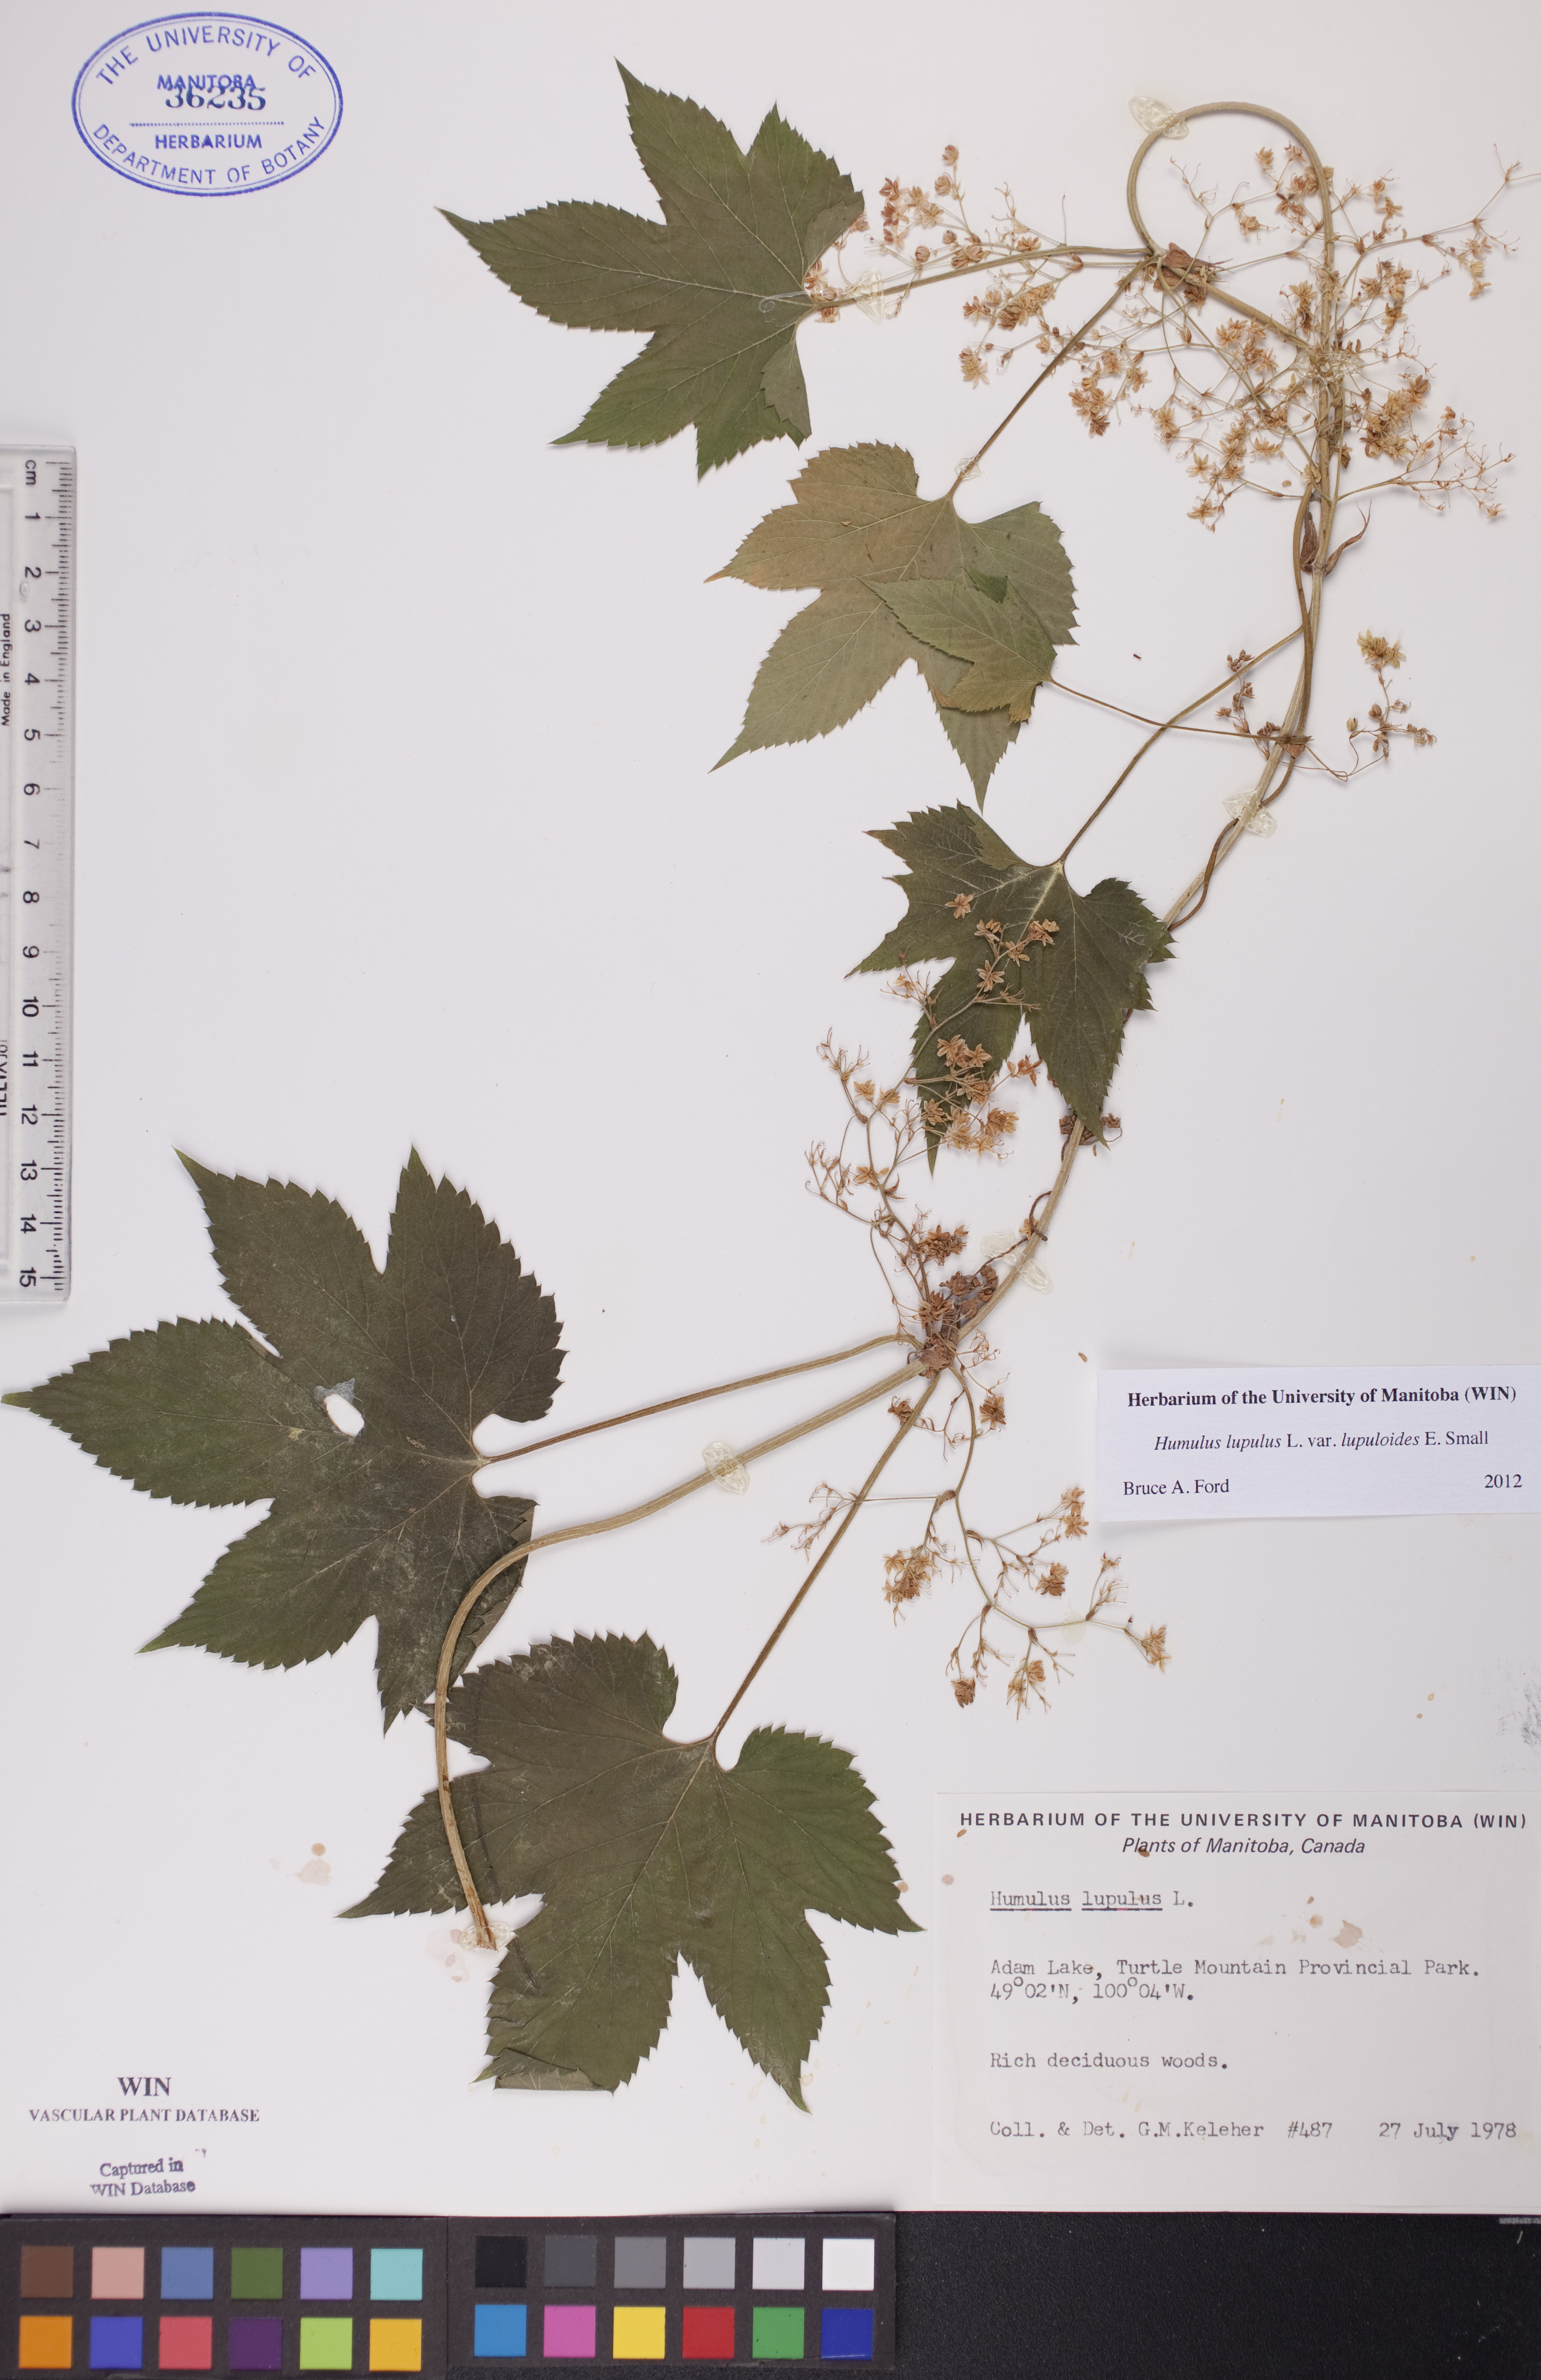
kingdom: Plantae
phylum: Tracheophyta
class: Magnoliopsida
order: Rosales
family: Cannabaceae
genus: Humulus
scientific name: Humulus americanus
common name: American hops
